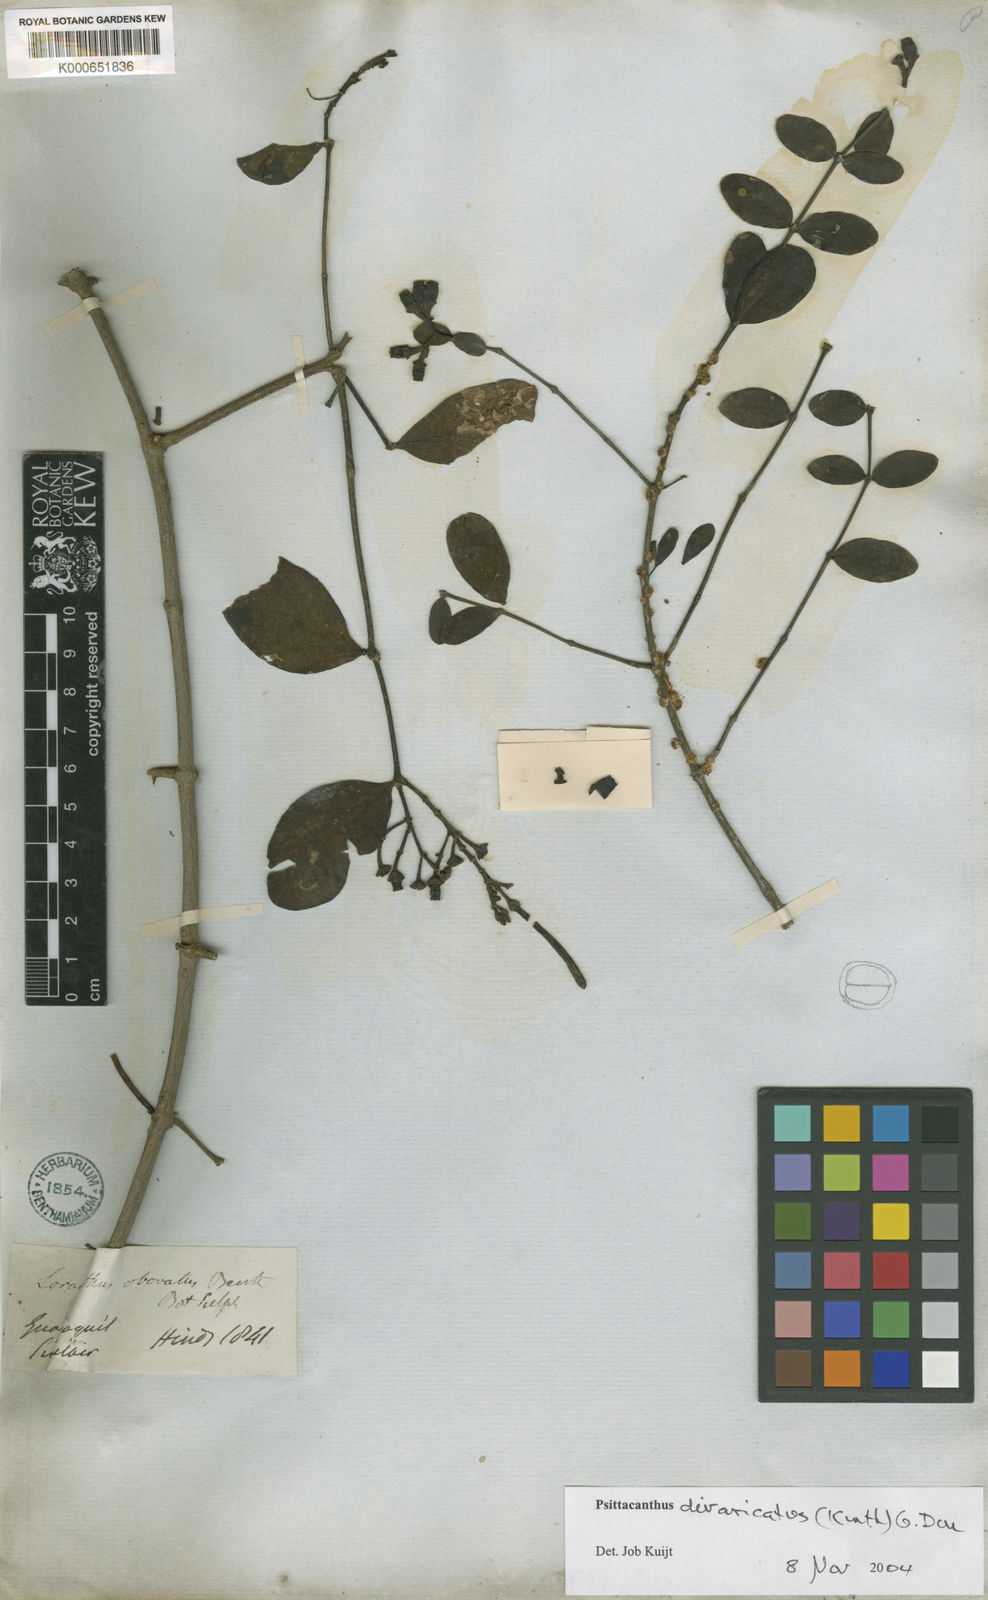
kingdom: Plantae
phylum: Tracheophyta
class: Magnoliopsida
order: Santalales
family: Loranthaceae
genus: Psittacanthus
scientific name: Psittacanthus divaricatus
